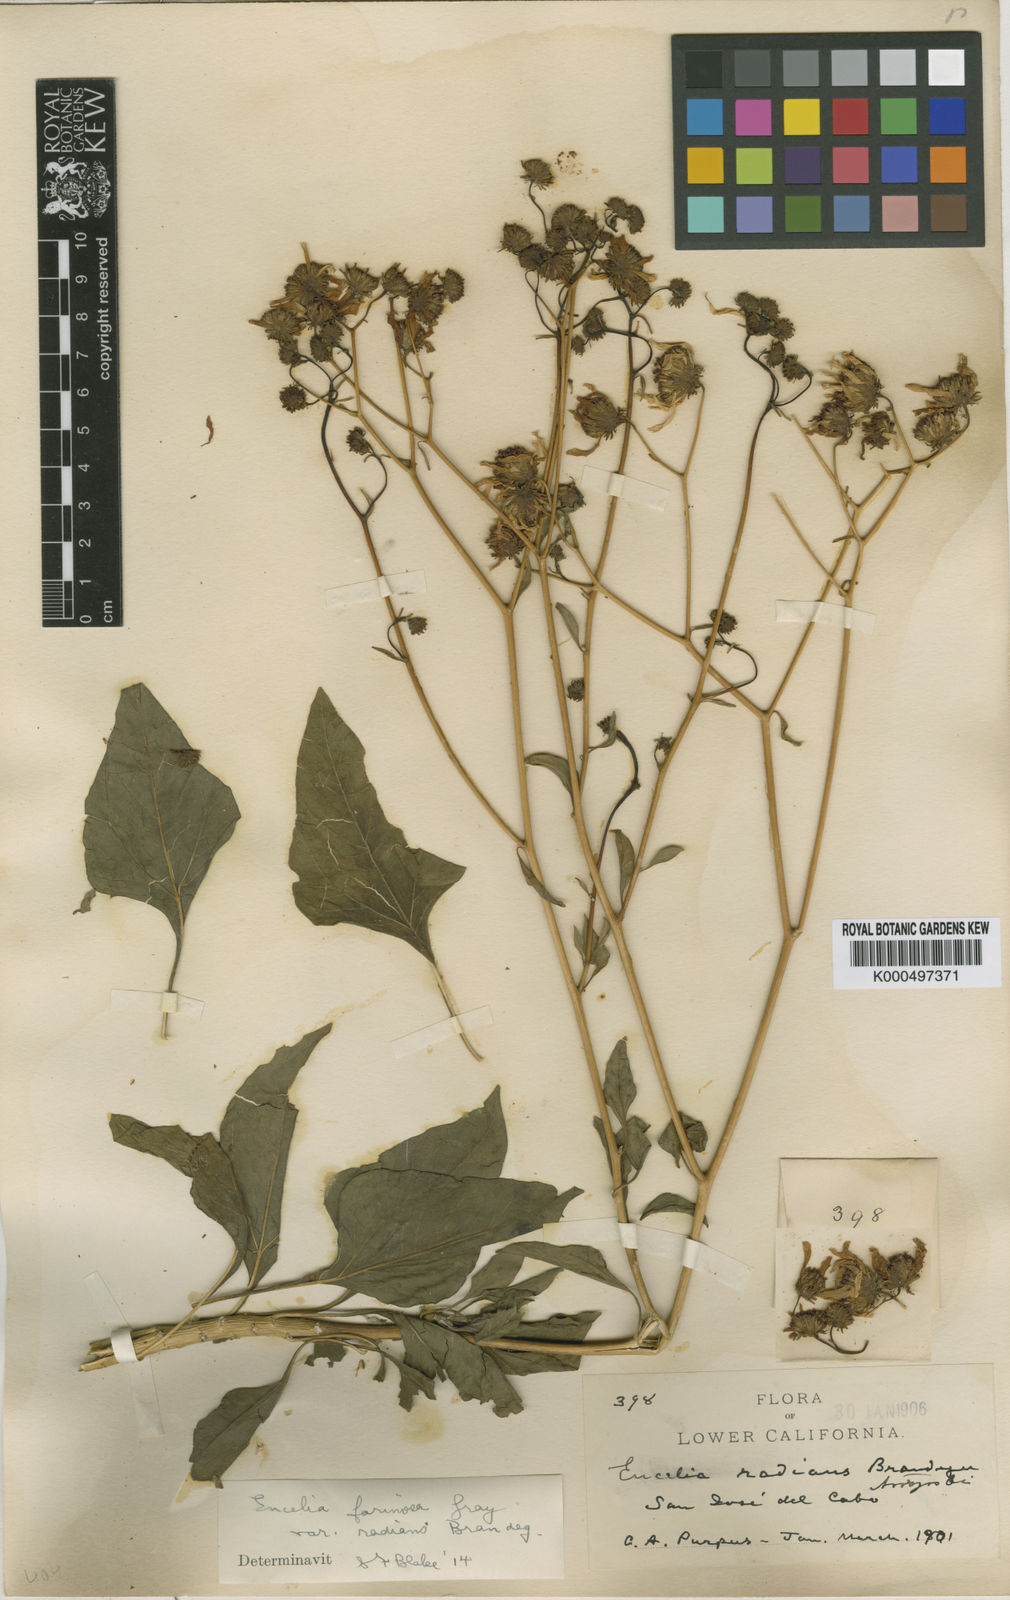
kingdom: Plantae
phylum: Tracheophyta
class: Magnoliopsida
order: Asterales
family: Asteraceae
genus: Encelia
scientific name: Encelia farinosa
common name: Brittlebush
